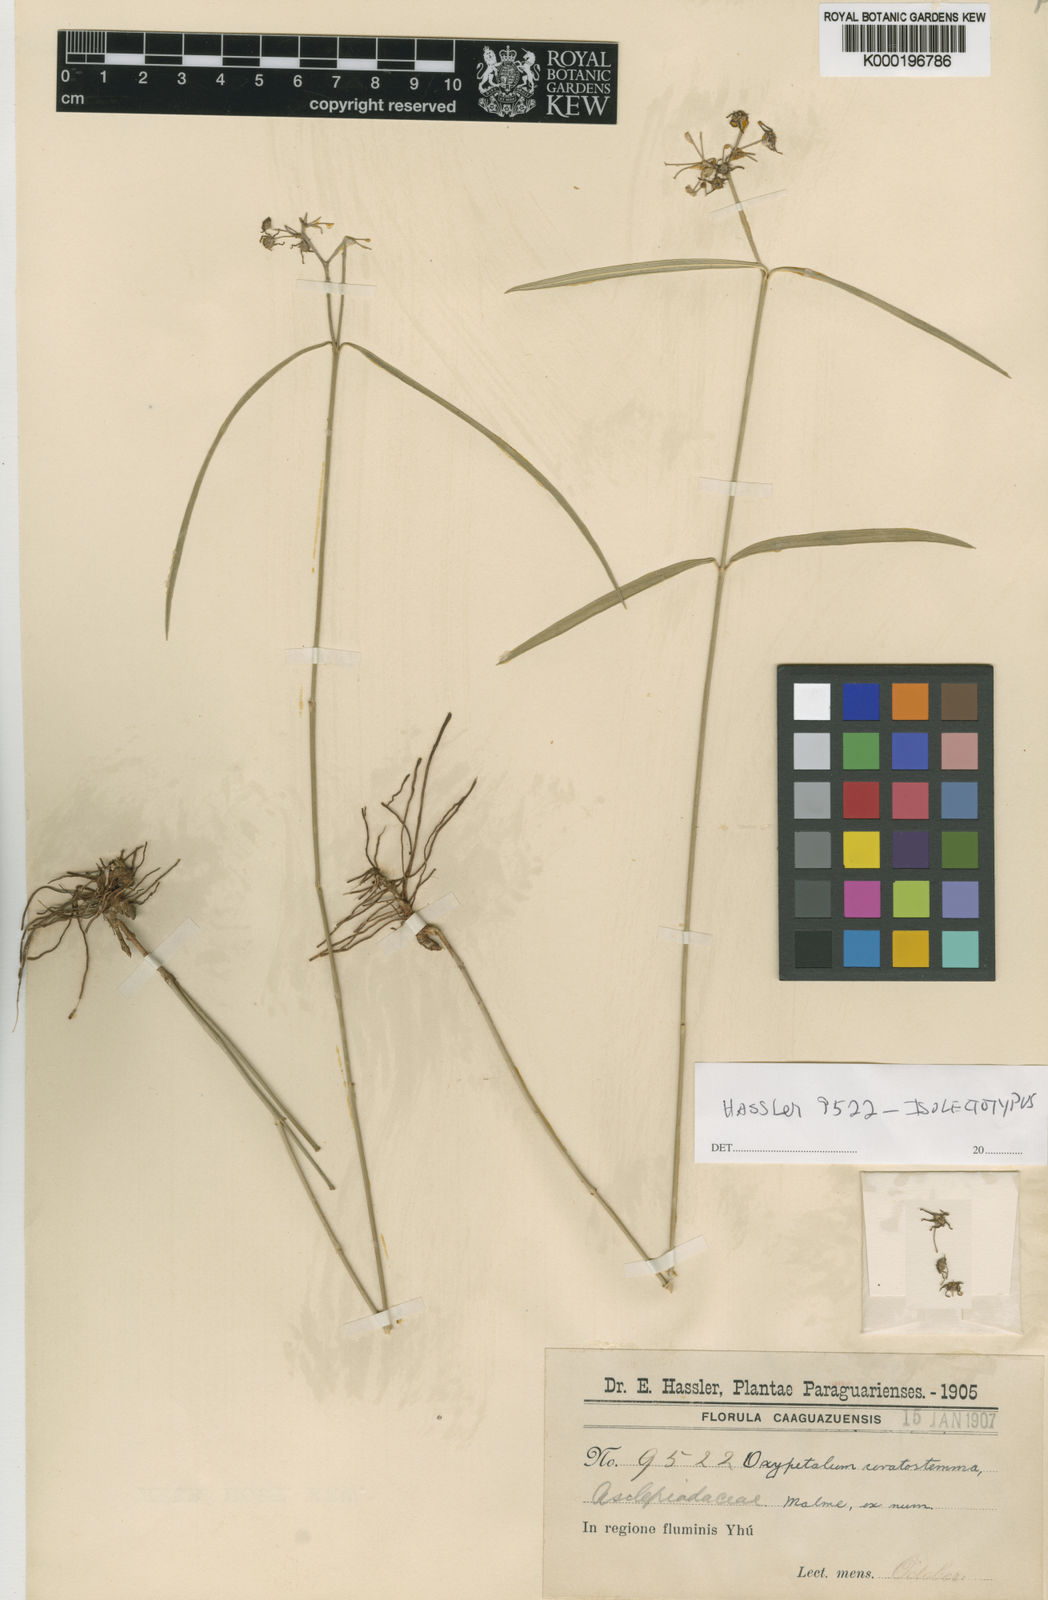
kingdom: Plantae
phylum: Tracheophyta
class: Magnoliopsida
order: Gentianales
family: Apocynaceae
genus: Oxypetalum
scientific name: Oxypetalum ceratostemma
